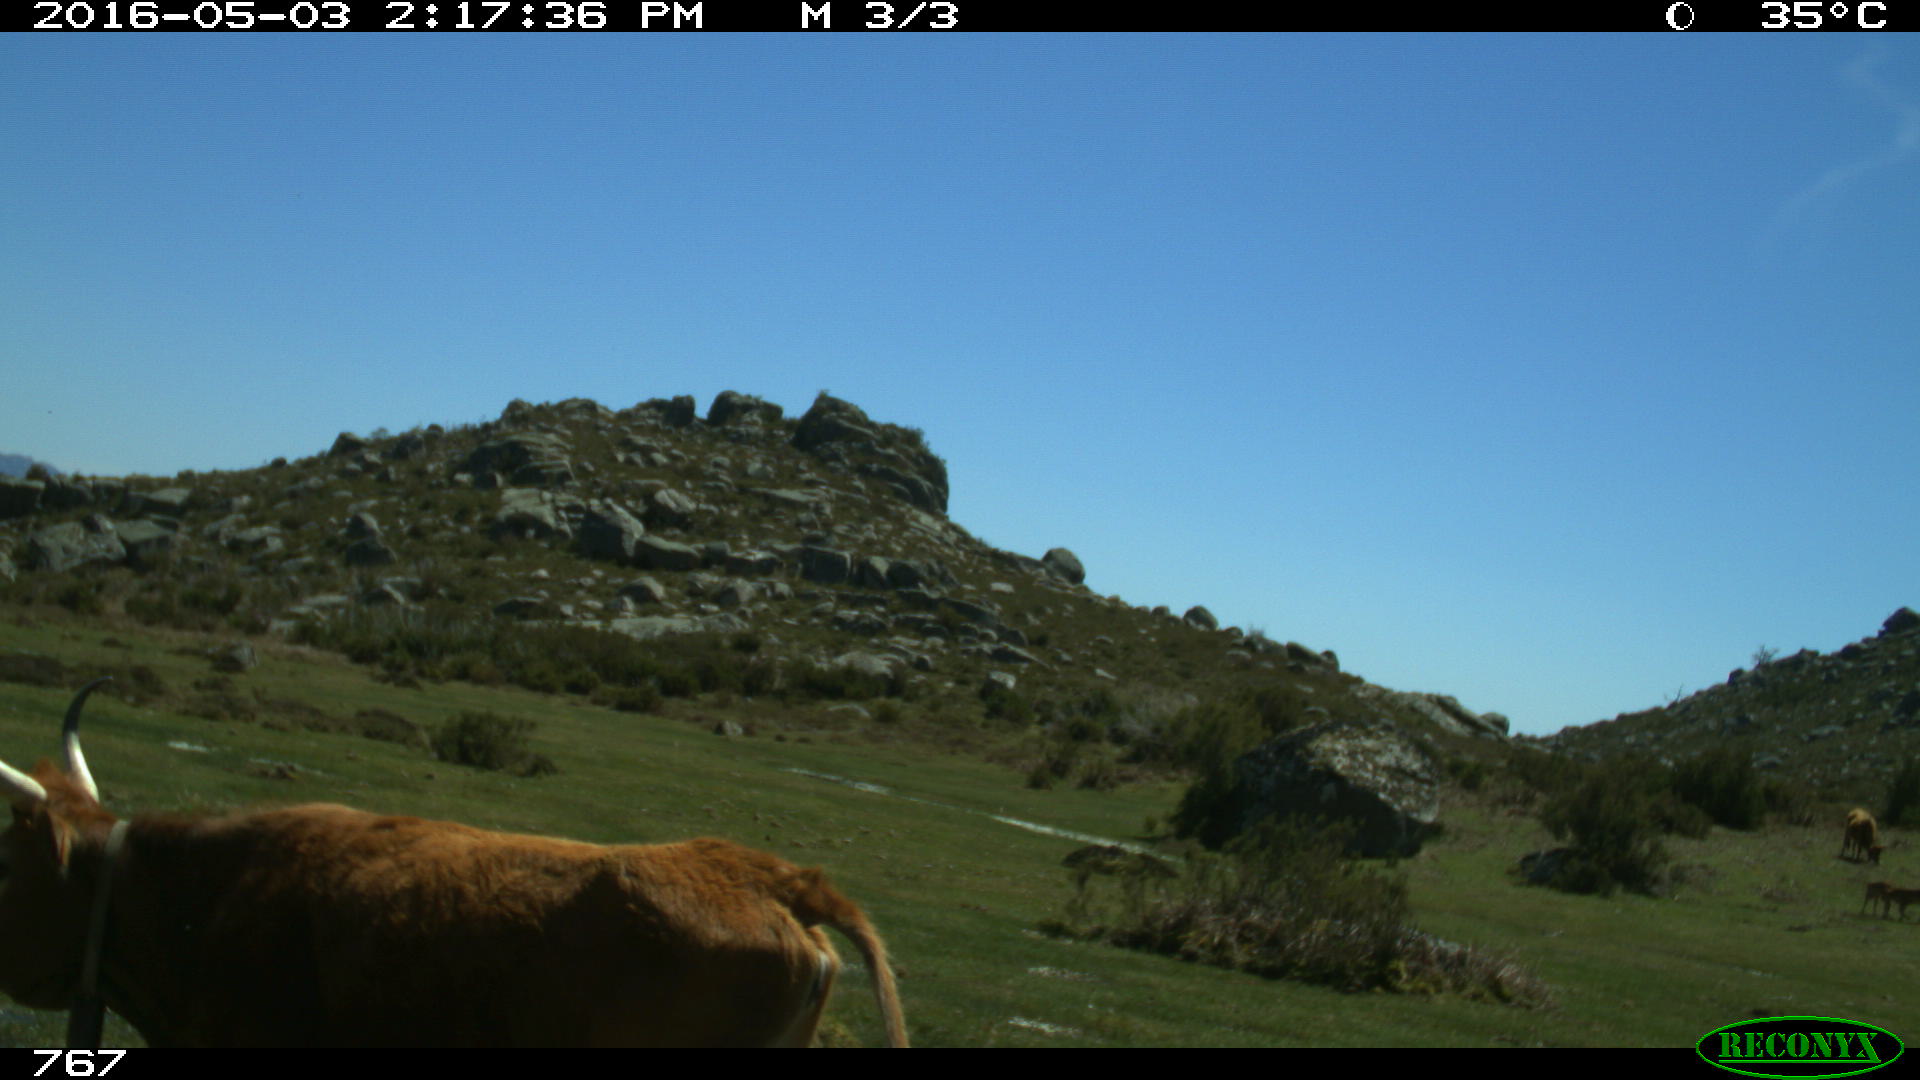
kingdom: Animalia
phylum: Chordata
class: Mammalia
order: Artiodactyla
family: Bovidae
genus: Bos
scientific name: Bos taurus
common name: Domesticated cattle
